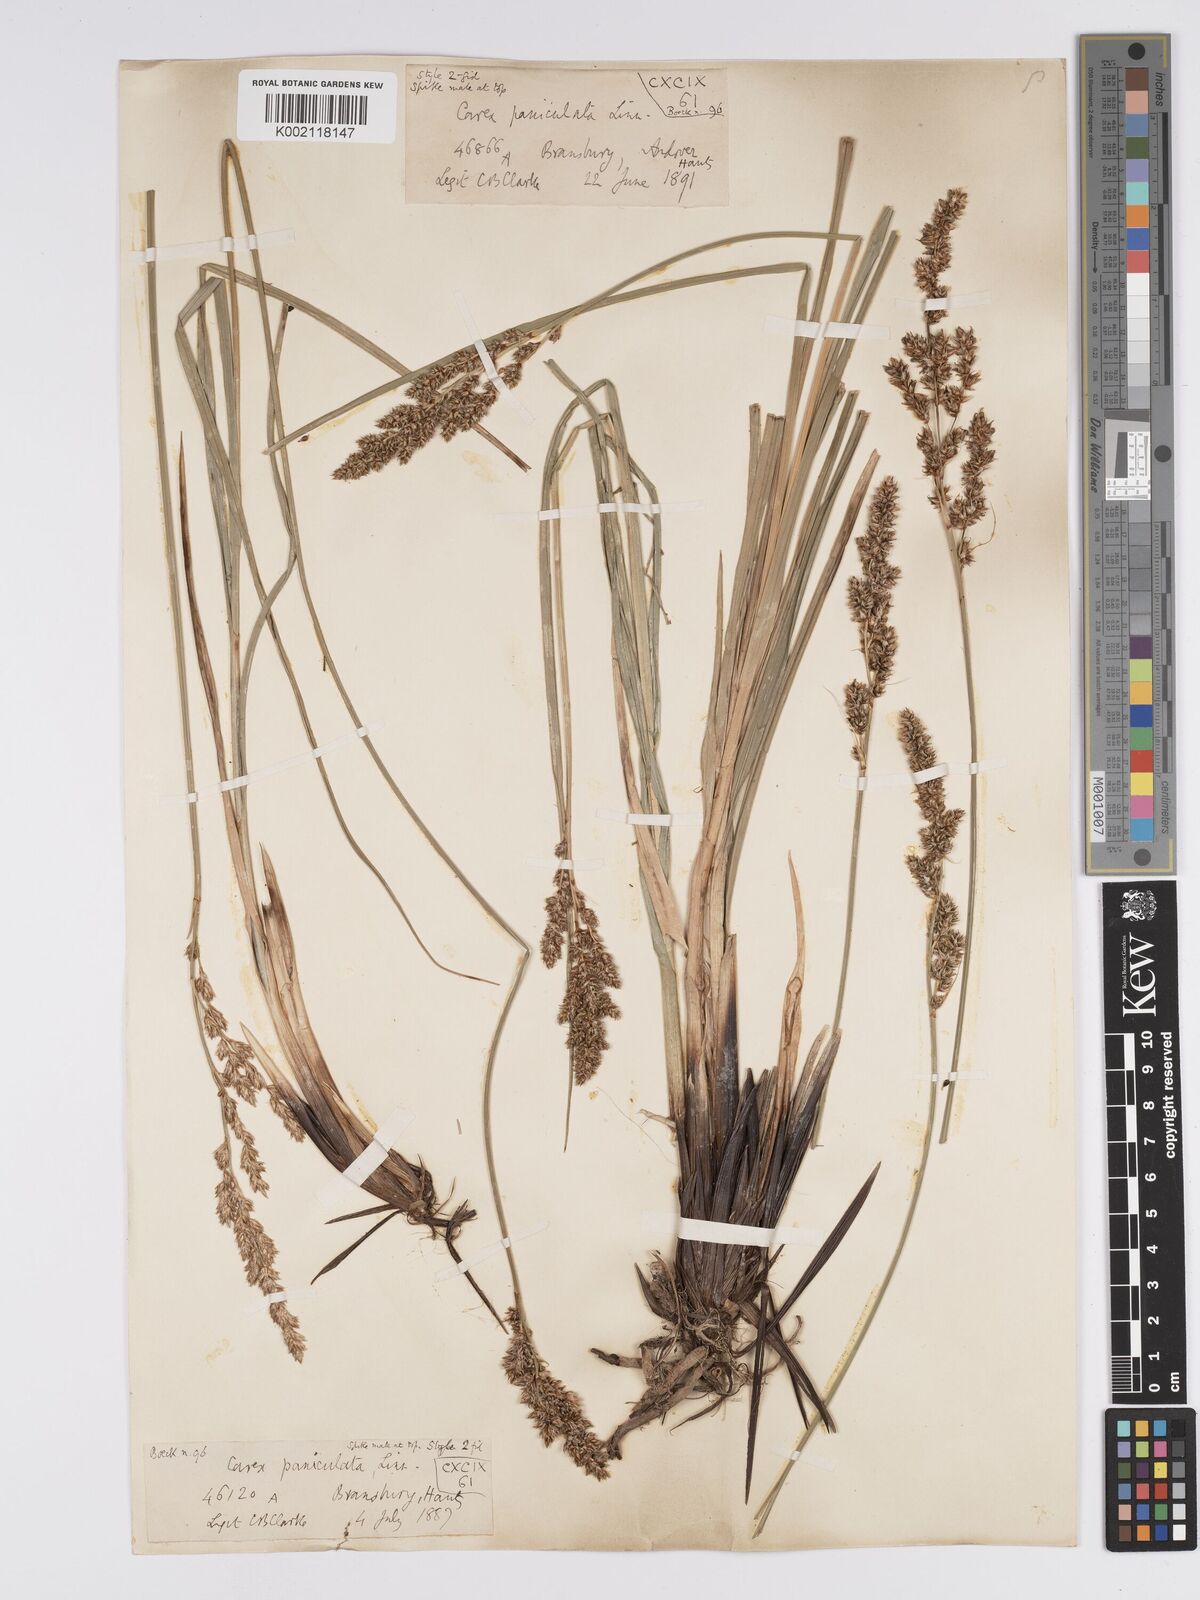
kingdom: Plantae
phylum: Tracheophyta
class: Liliopsida
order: Poales
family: Cyperaceae
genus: Carex
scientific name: Carex paniculata
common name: Greater tussock-sedge
